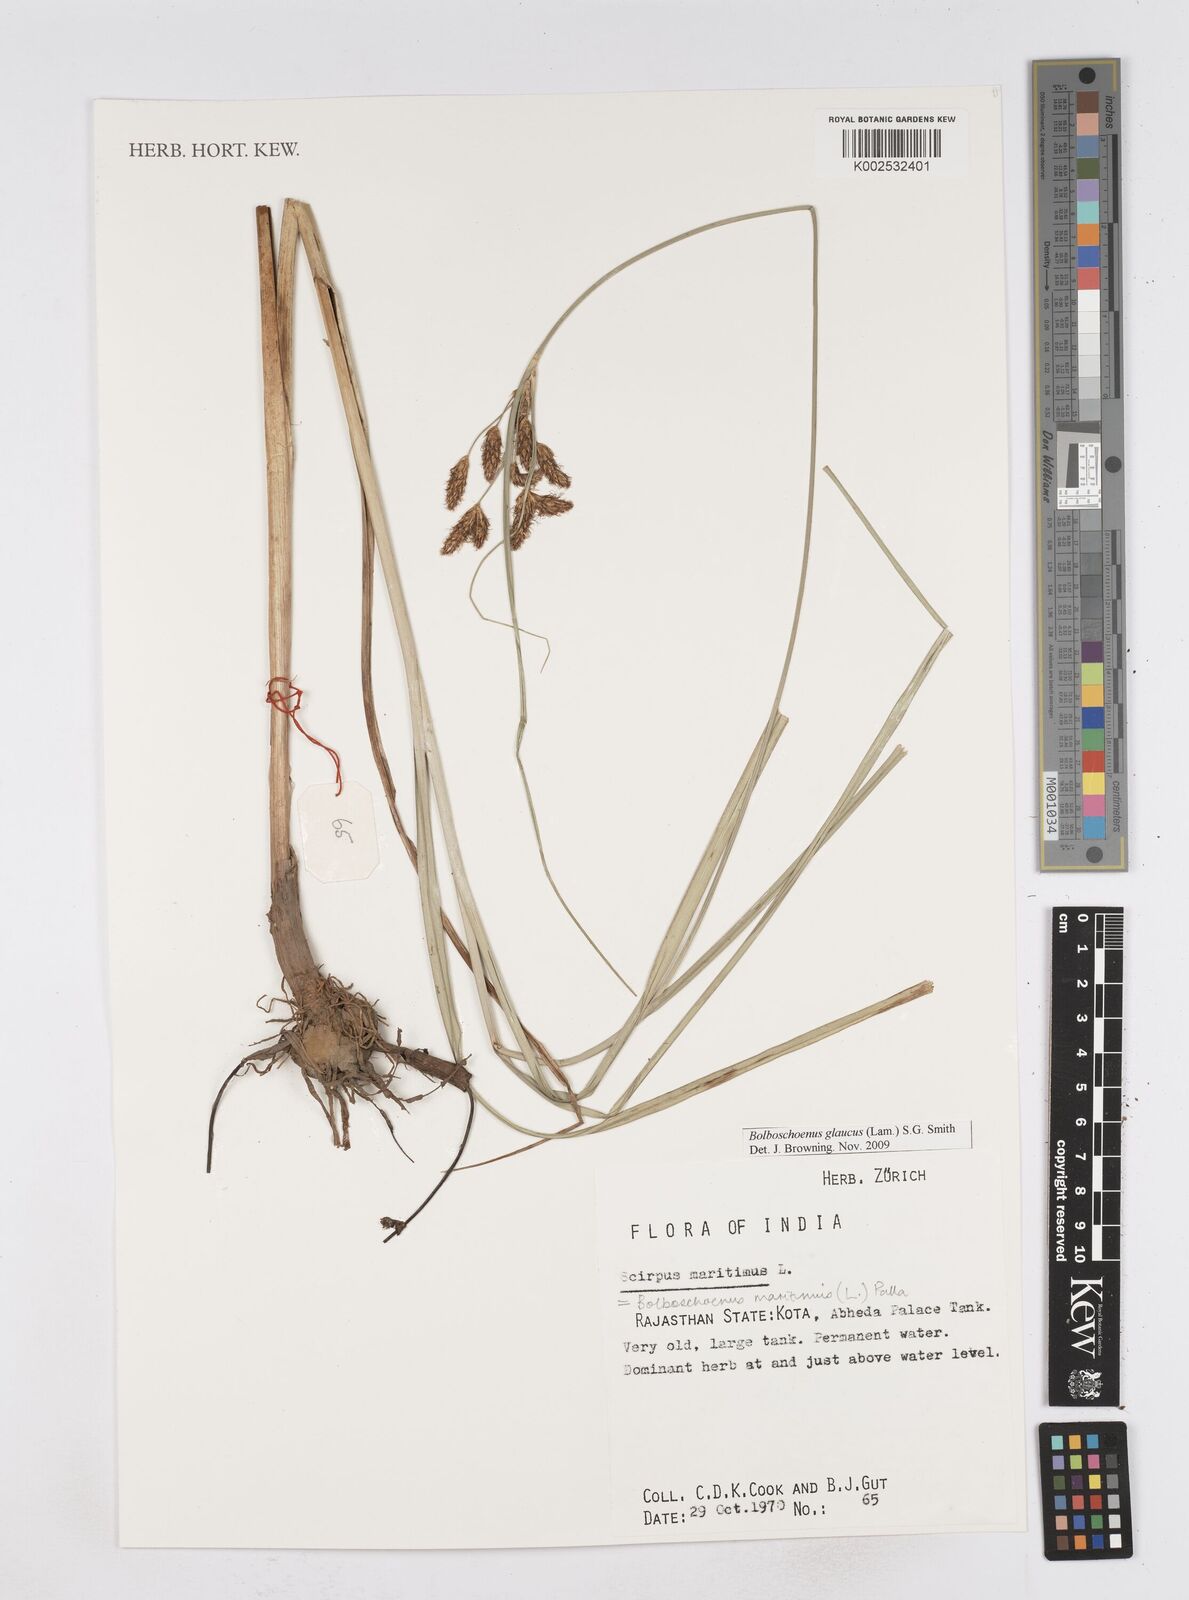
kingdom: Plantae
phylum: Tracheophyta
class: Liliopsida
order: Poales
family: Cyperaceae
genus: Bolboschoenus
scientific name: Bolboschoenus maritimus
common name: Sea club-rush
